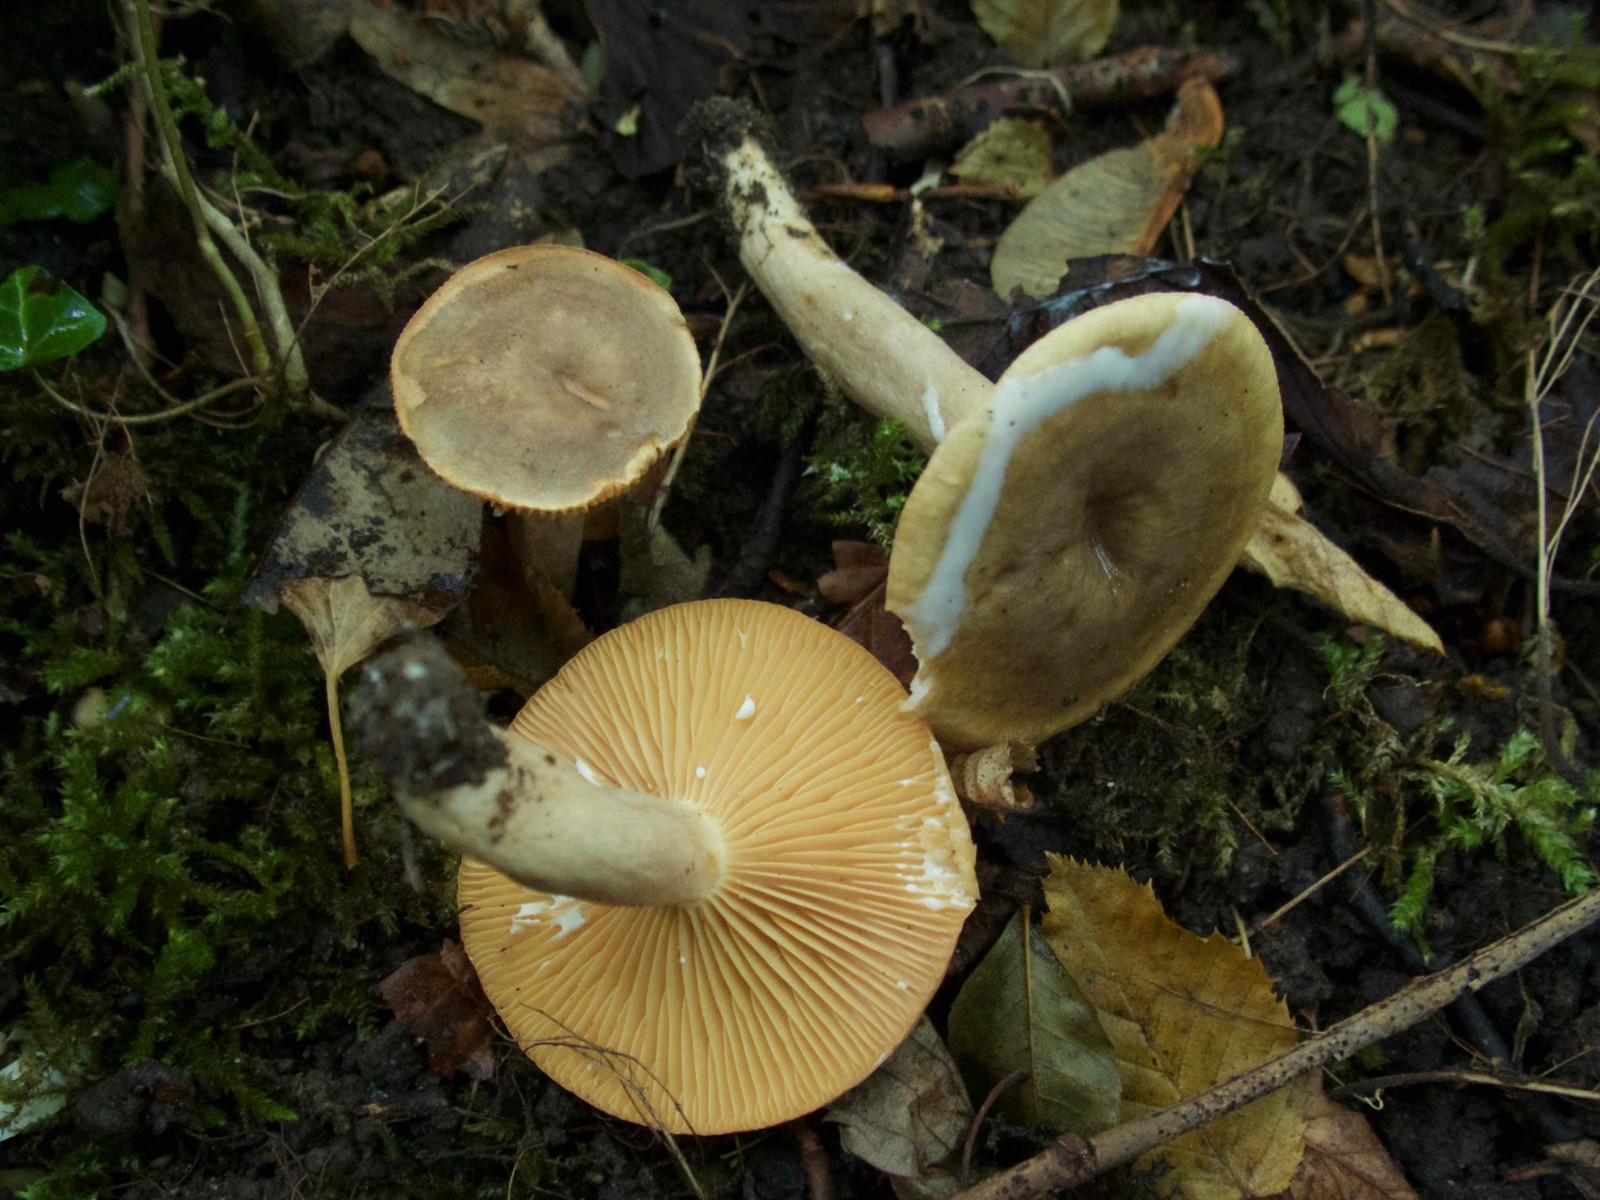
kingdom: Fungi
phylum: Basidiomycota
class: Agaricomycetes
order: Russulales
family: Russulaceae
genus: Lactarius
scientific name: Lactarius pyrogalus
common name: hassel-mælkehat
